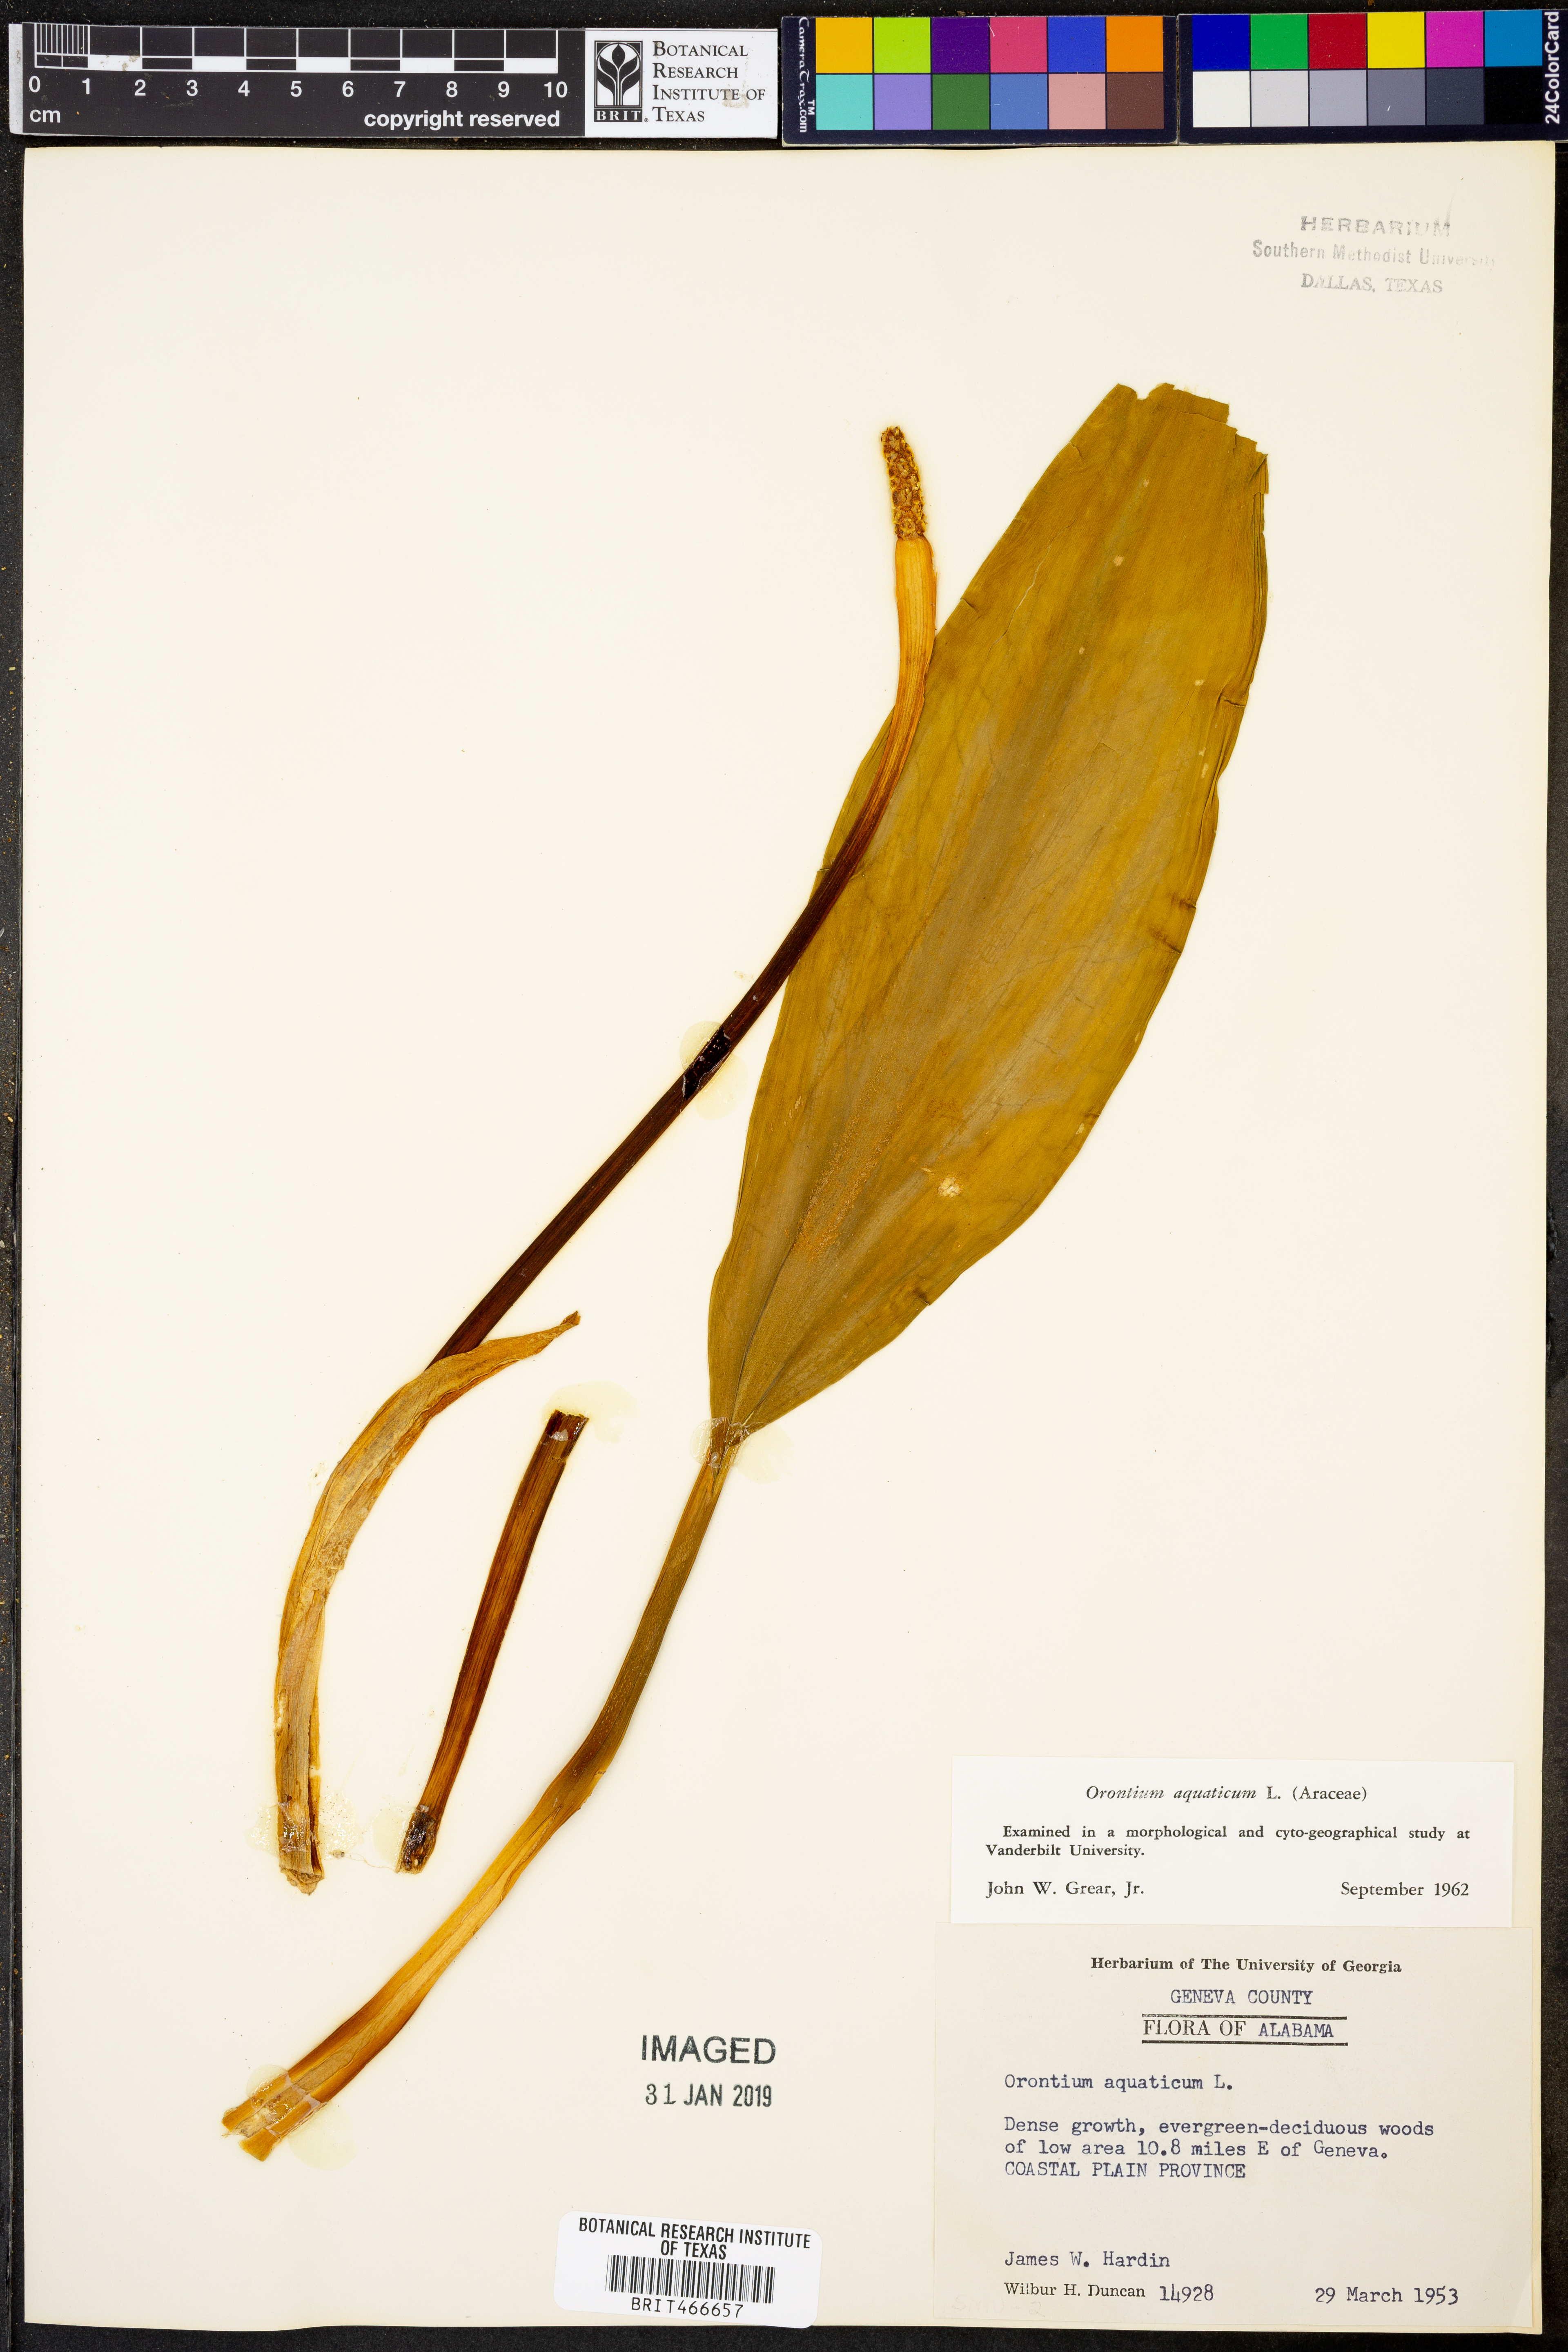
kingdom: Plantae
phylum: Tracheophyta
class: Liliopsida
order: Alismatales
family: Araceae
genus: Orontium
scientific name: Orontium aquaticum
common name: Golden-club
